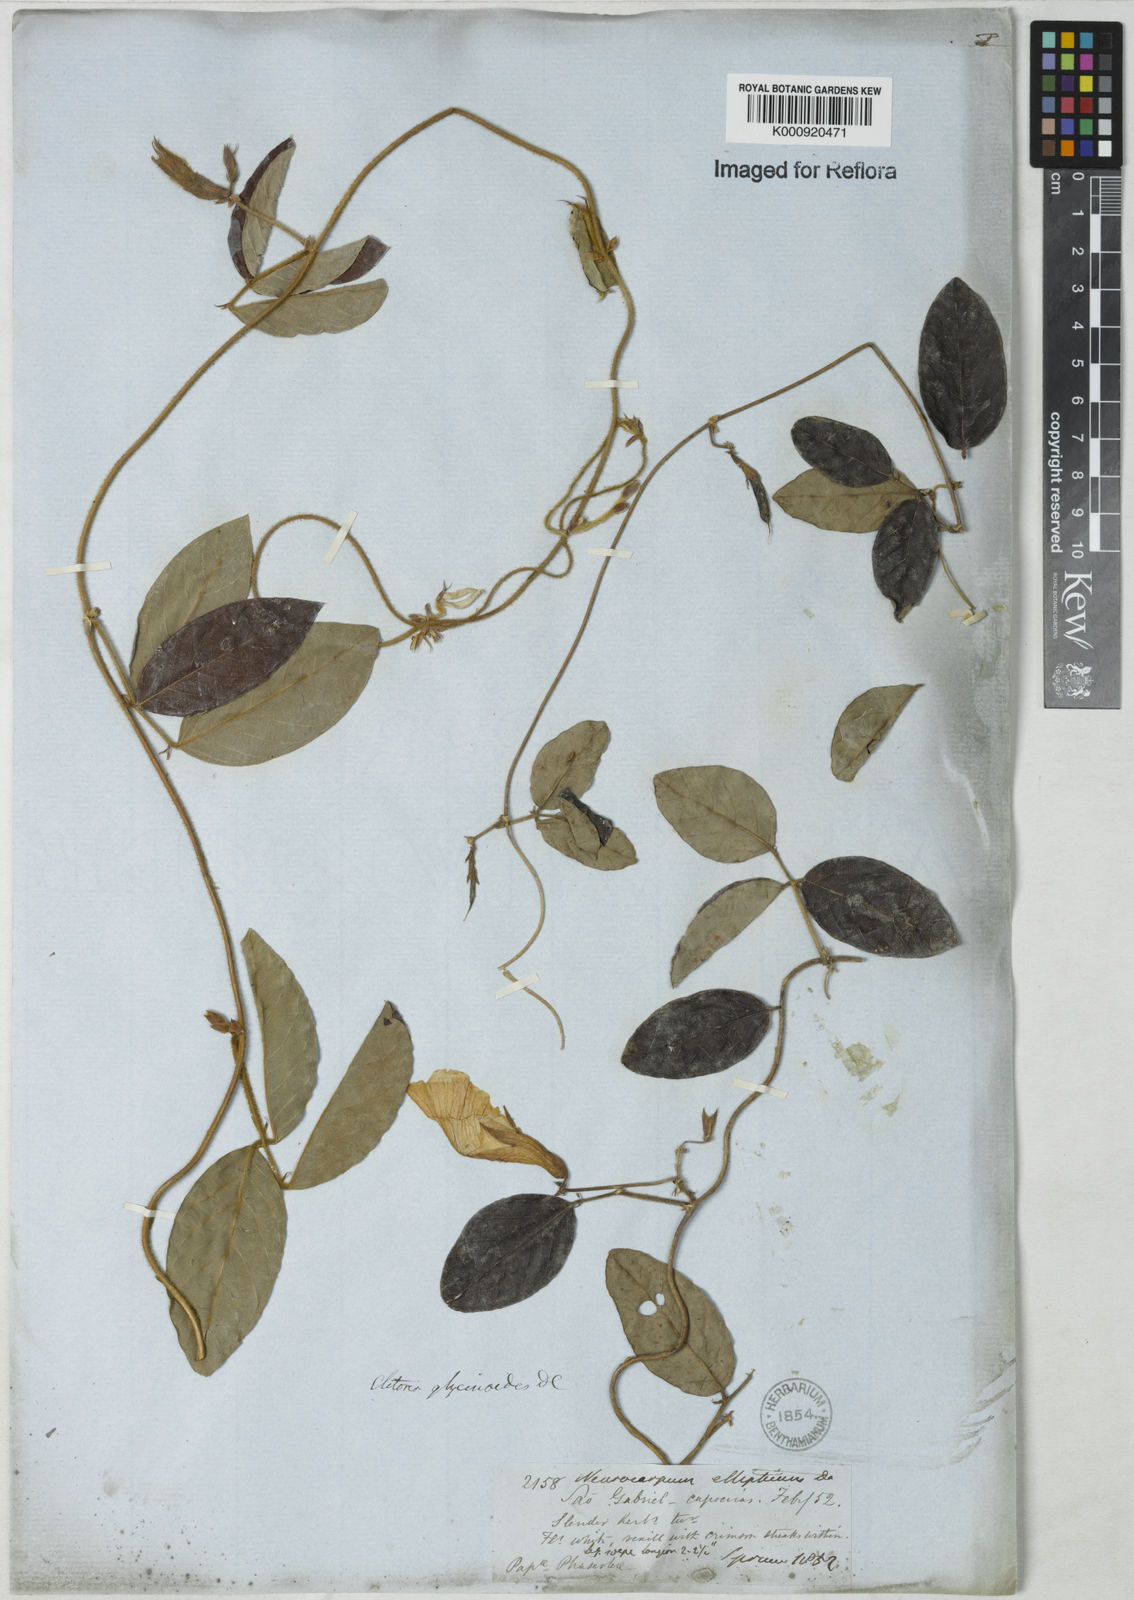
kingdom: Plantae
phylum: Tracheophyta
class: Magnoliopsida
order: Fabales
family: Fabaceae
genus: Clitoria
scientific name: Clitoria
